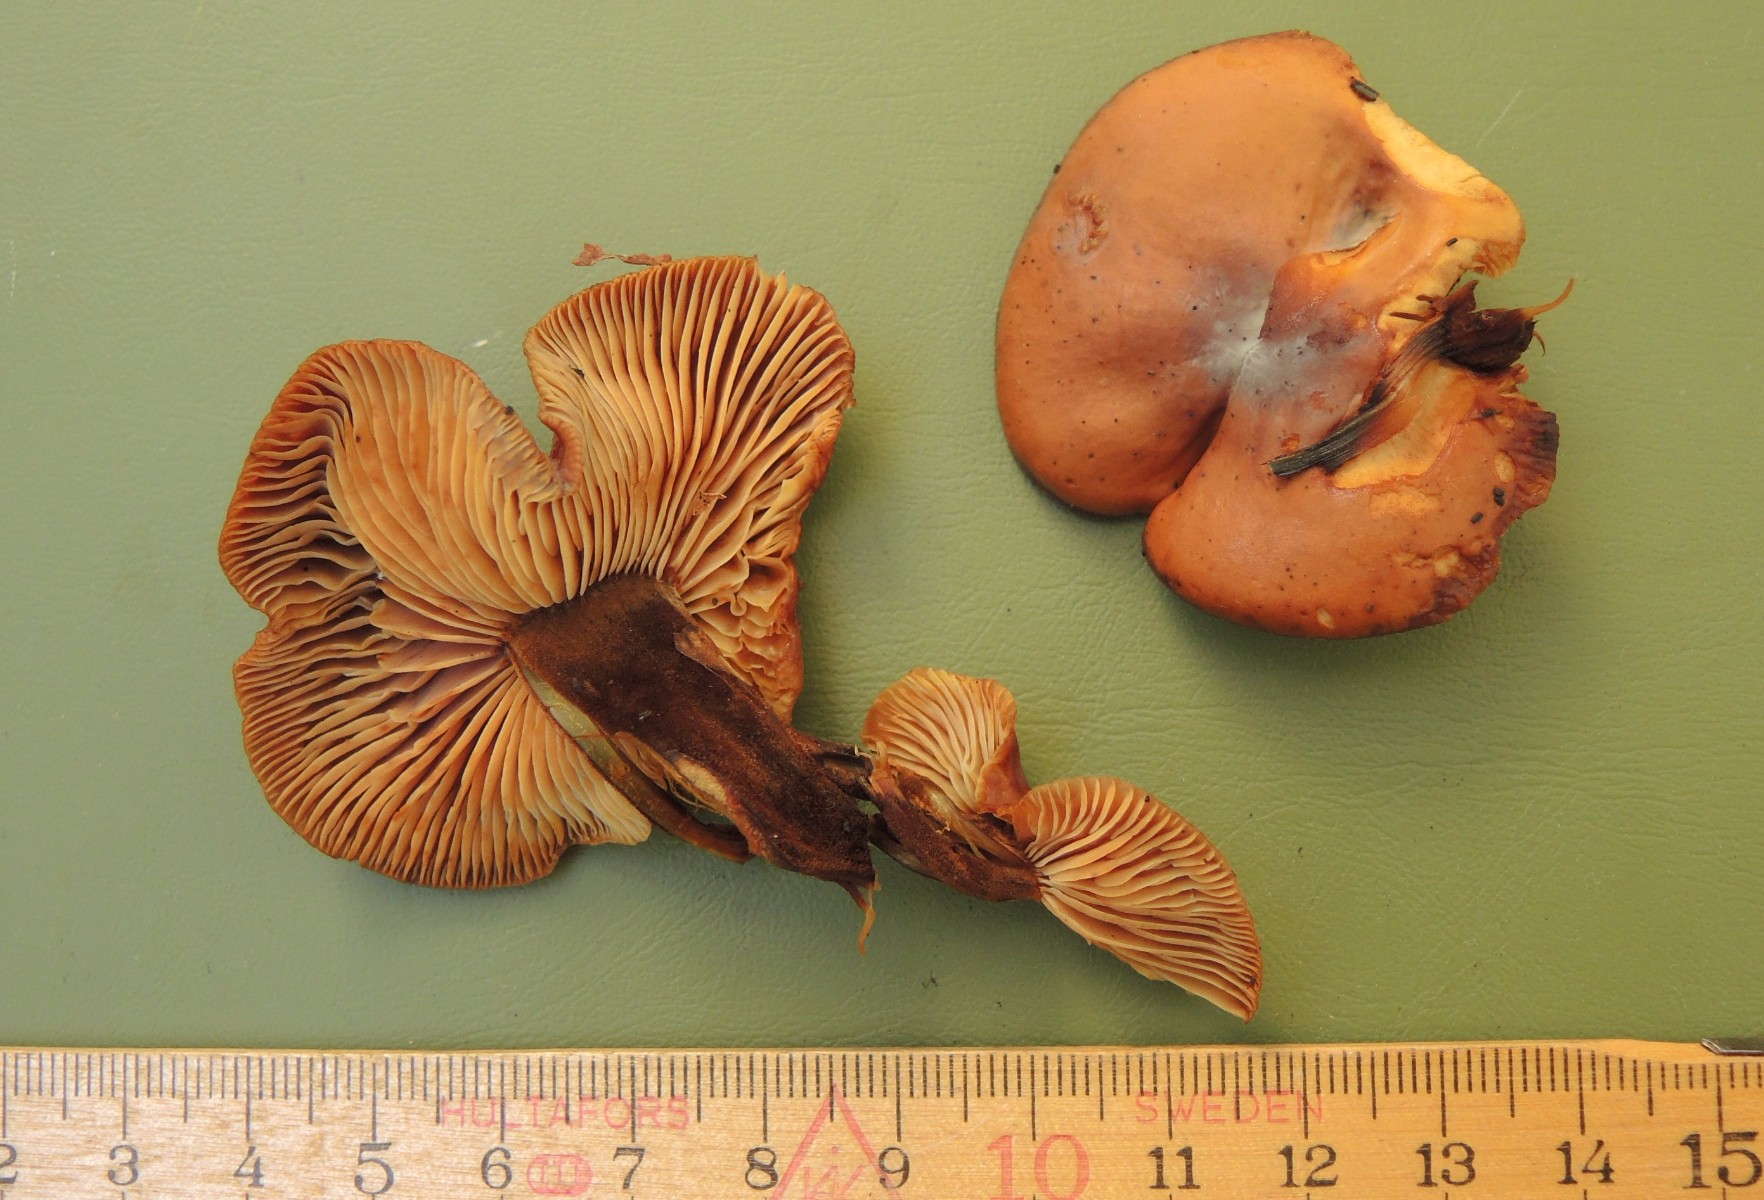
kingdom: Fungi
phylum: Basidiomycota
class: Agaricomycetes
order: Agaricales
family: Physalacriaceae
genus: Flammulina
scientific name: Flammulina elastica
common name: pile-fløjlsfod
